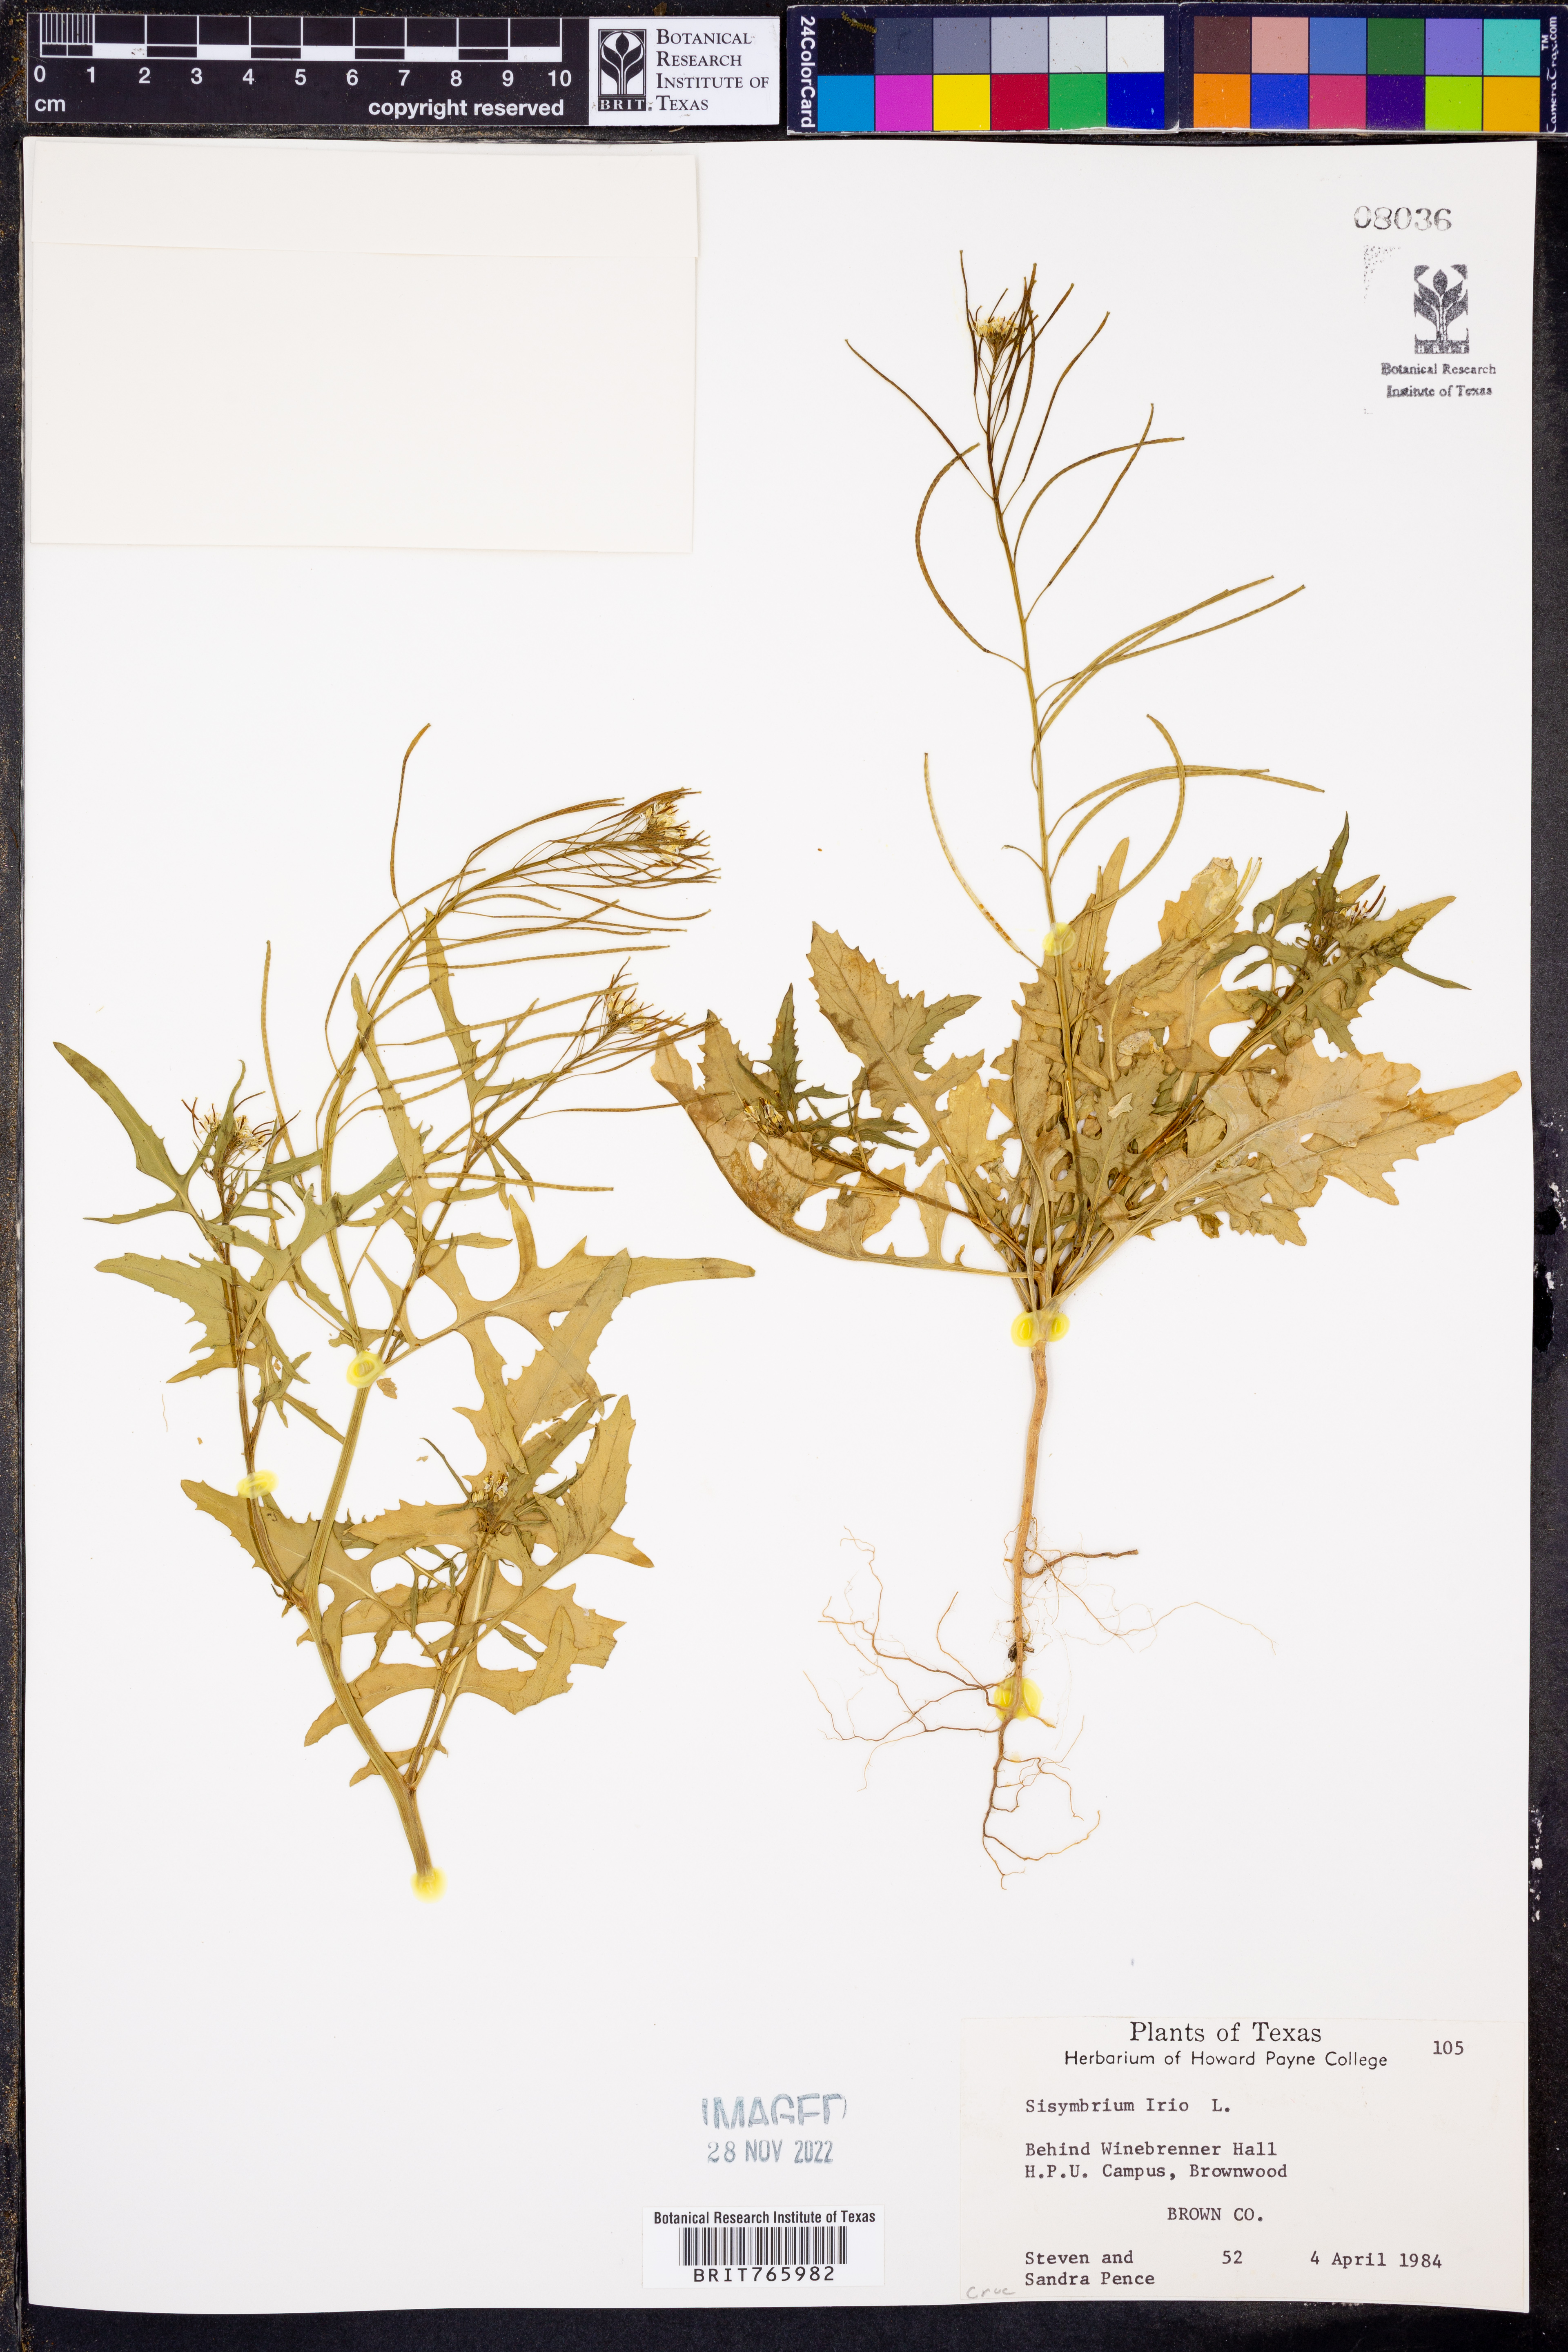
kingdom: Plantae
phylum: Tracheophyta
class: Magnoliopsida
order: Brassicales
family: Brassicaceae
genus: Sisymbrium
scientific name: Sisymbrium irio
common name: London rocket
